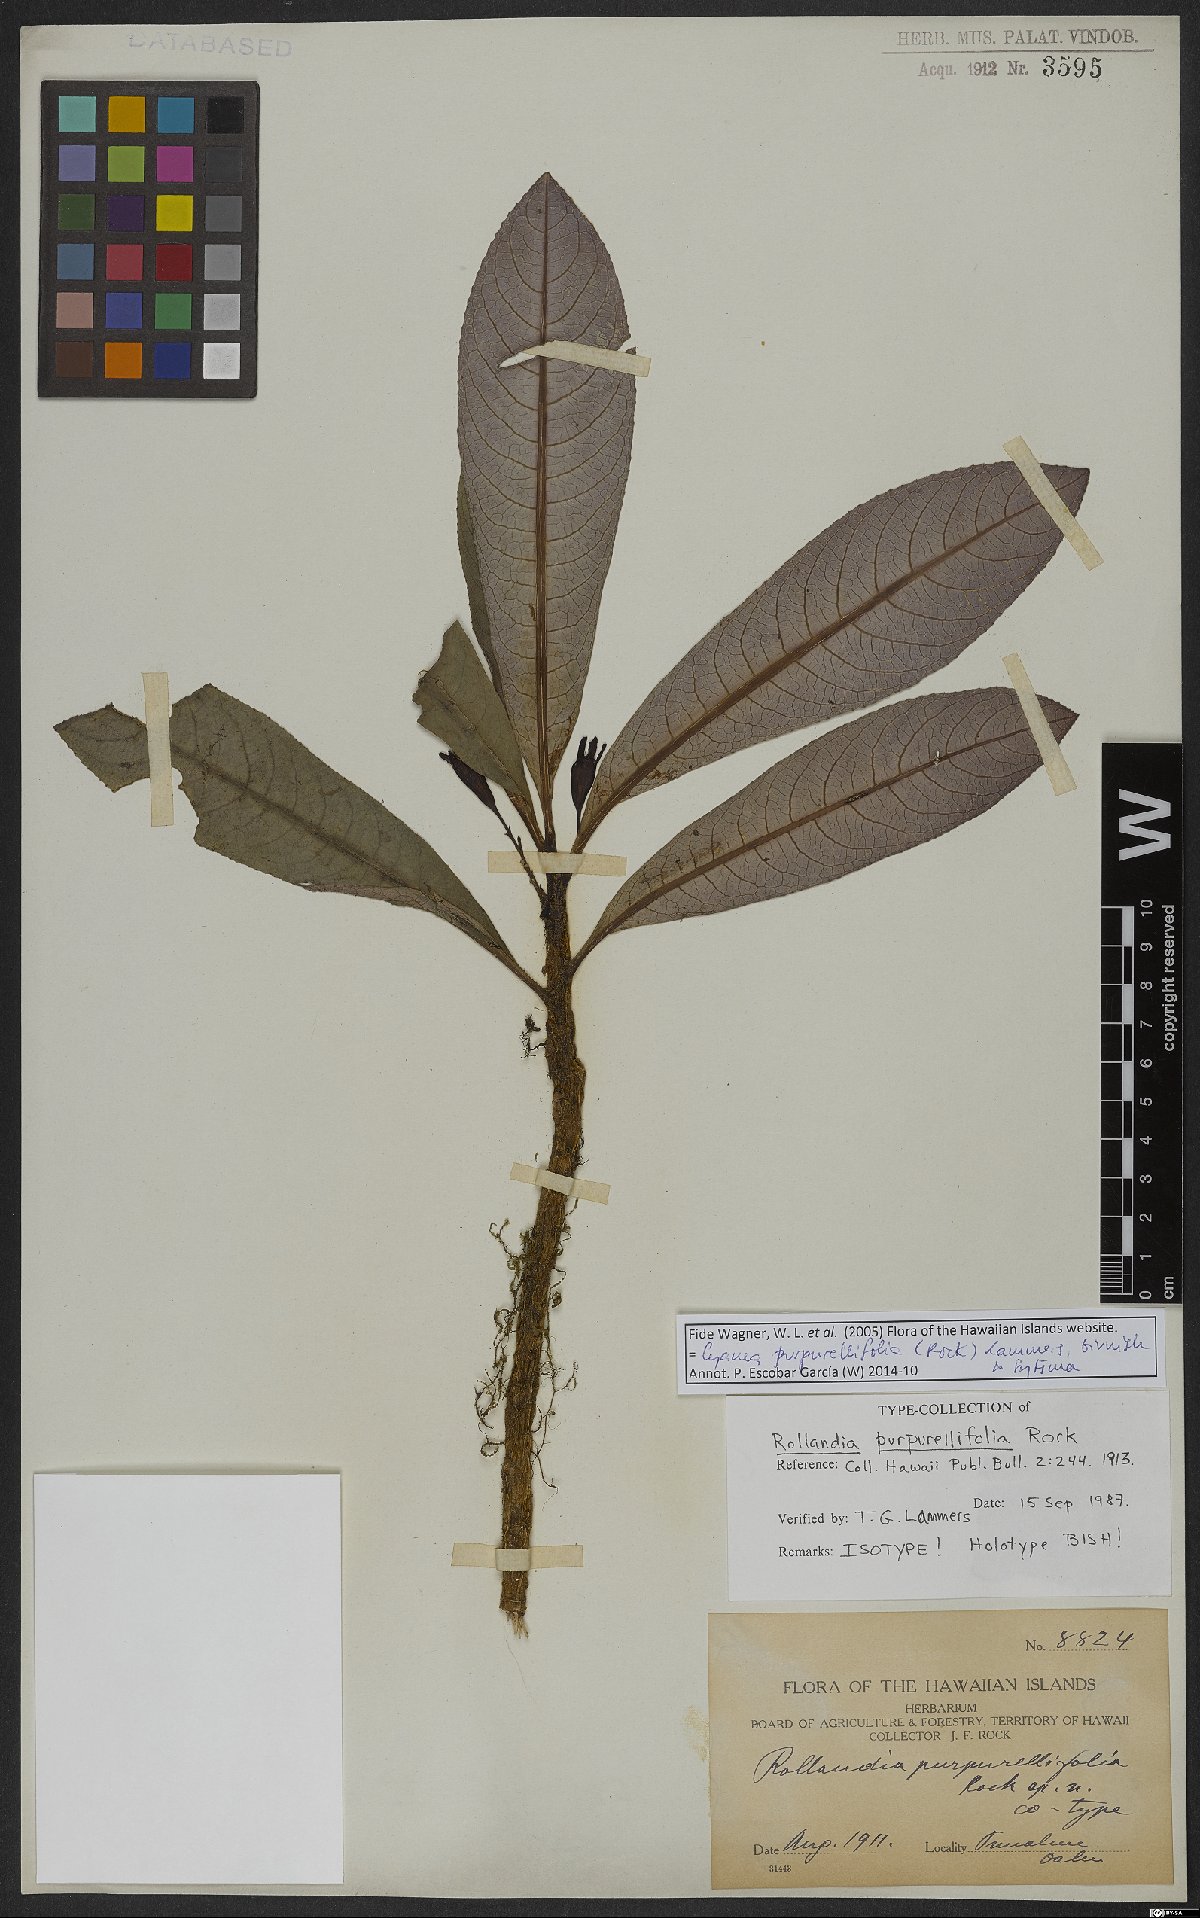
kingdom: Plantae
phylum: Tracheophyta
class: Magnoliopsida
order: Asterales
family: Campanulaceae
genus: Cyanea
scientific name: Cyanea purpurellifolia
